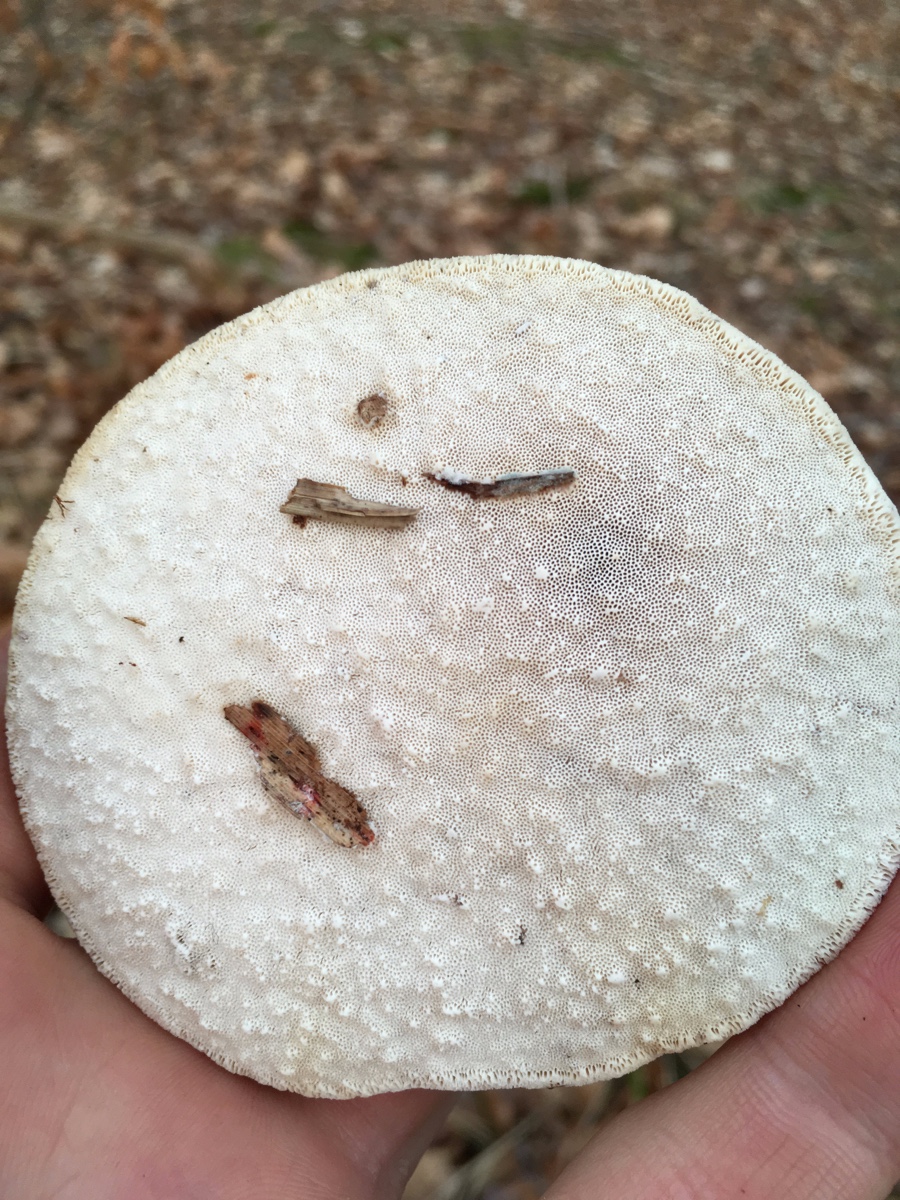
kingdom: Fungi
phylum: Basidiomycota
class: Agaricomycetes
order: Polyporales
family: Fomitopsidaceae
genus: Fomitopsis
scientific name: Fomitopsis betulina
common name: birkeporesvamp
